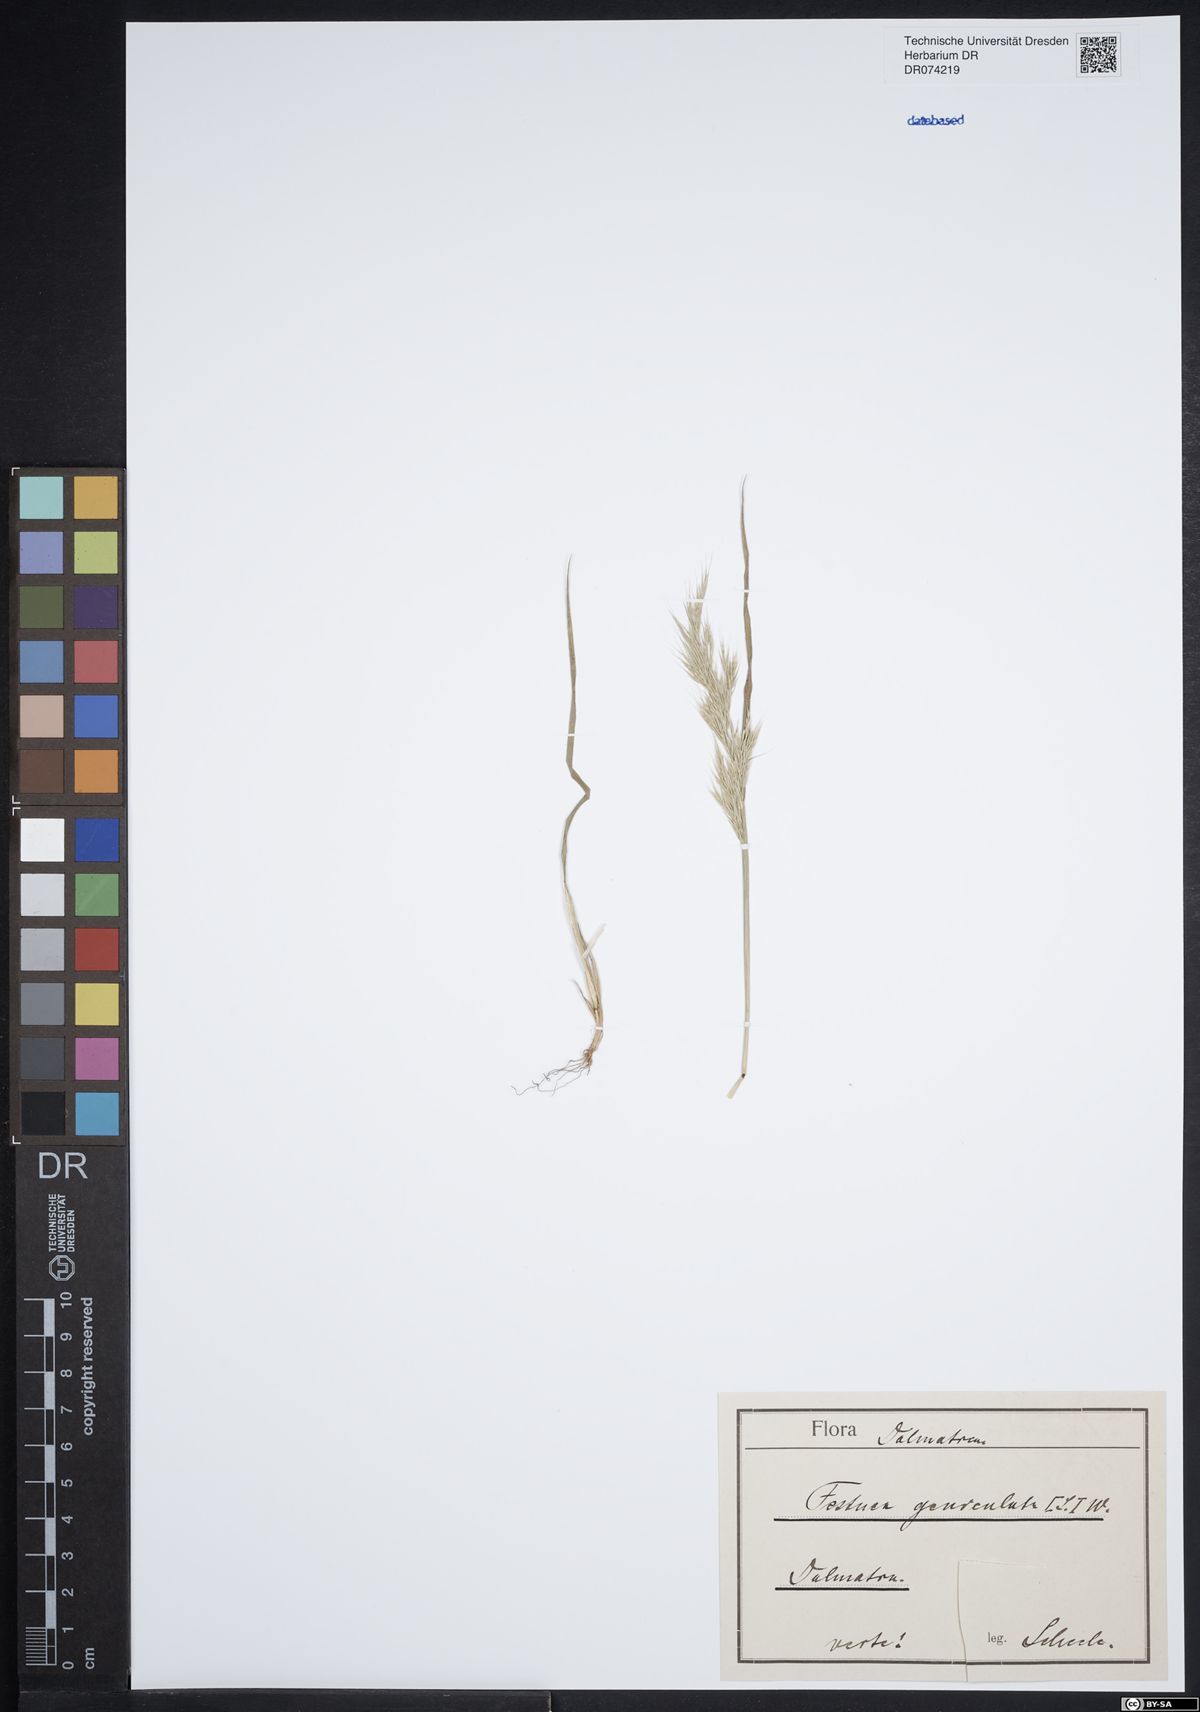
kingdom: Plantae
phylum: Tracheophyta
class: Liliopsida
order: Poales
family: Poaceae
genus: Festuca
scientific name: Festuca geniculata
